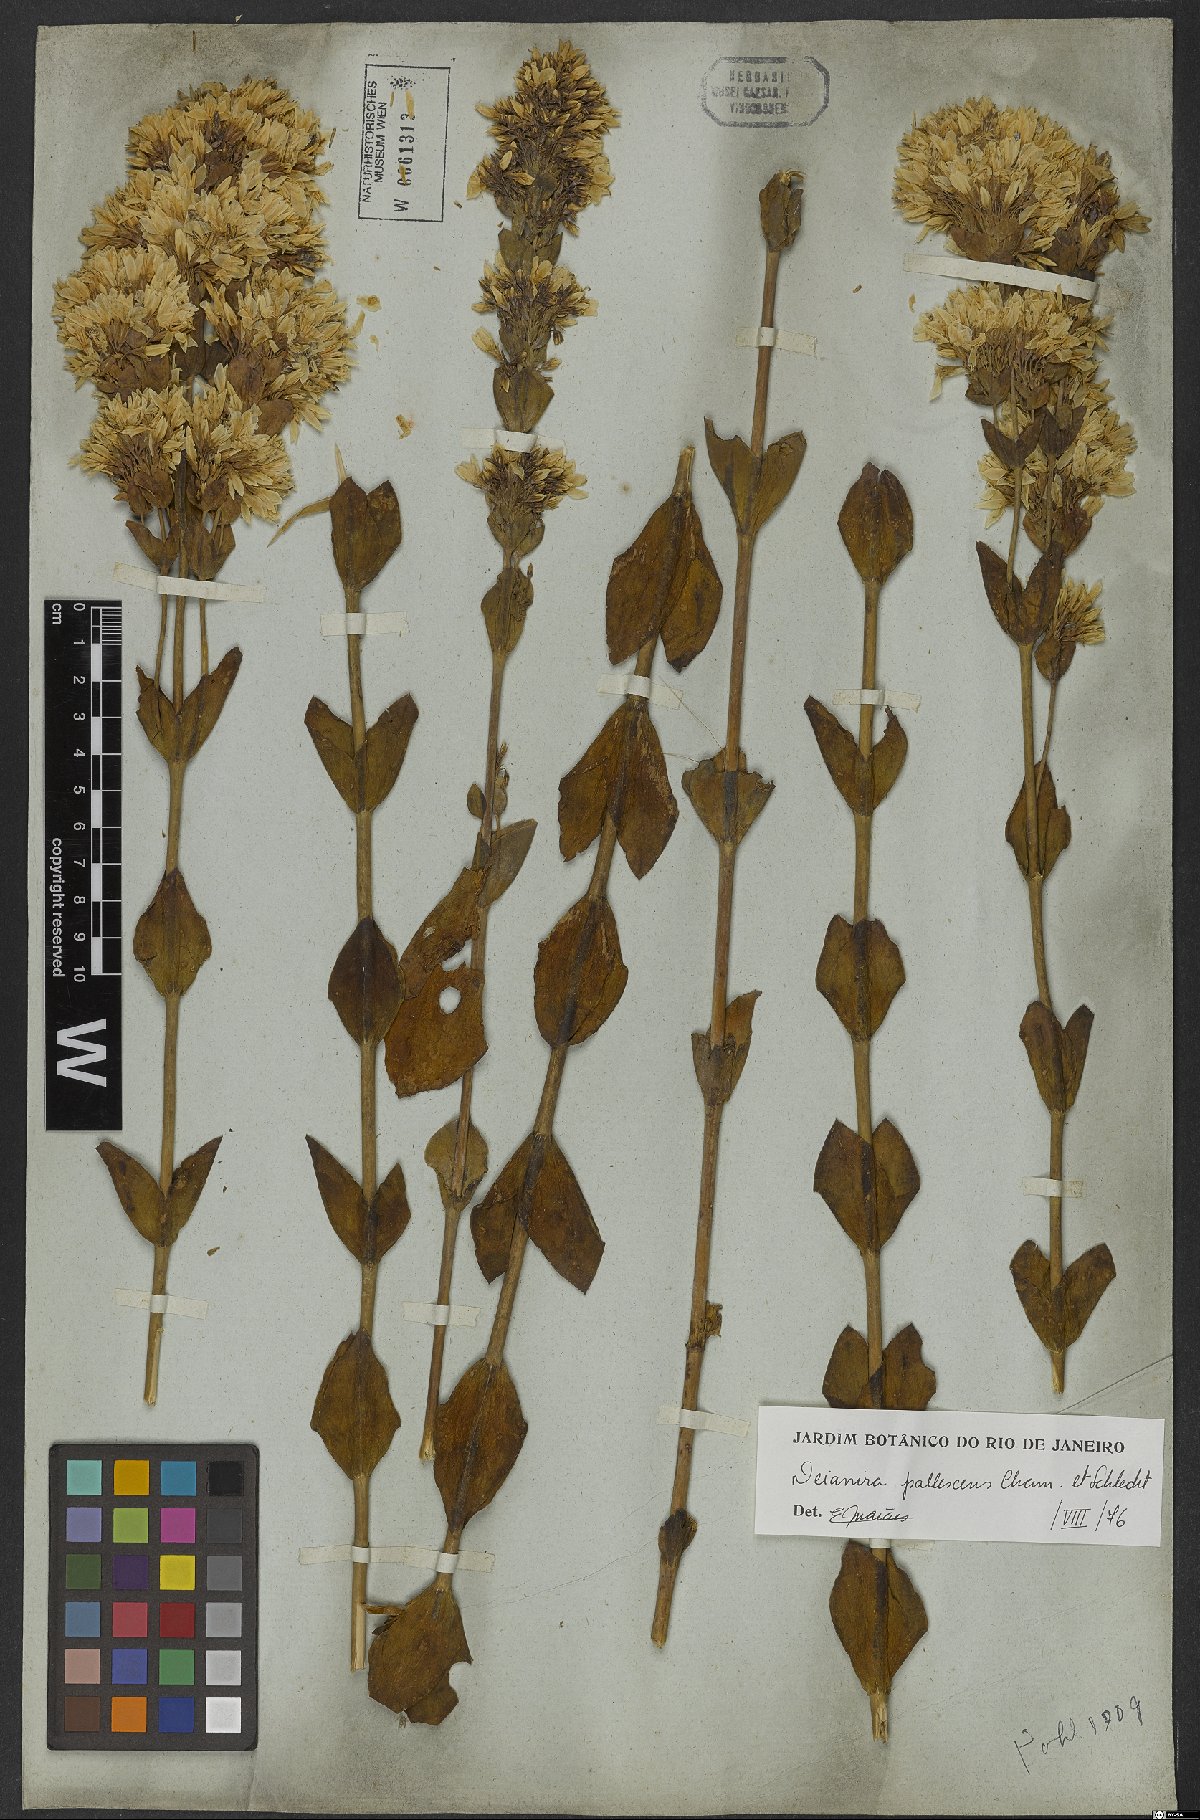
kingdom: Plantae
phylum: Tracheophyta
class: Magnoliopsida
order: Gentianales
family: Gentianaceae
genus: Deianira
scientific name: Deianira pallescens
